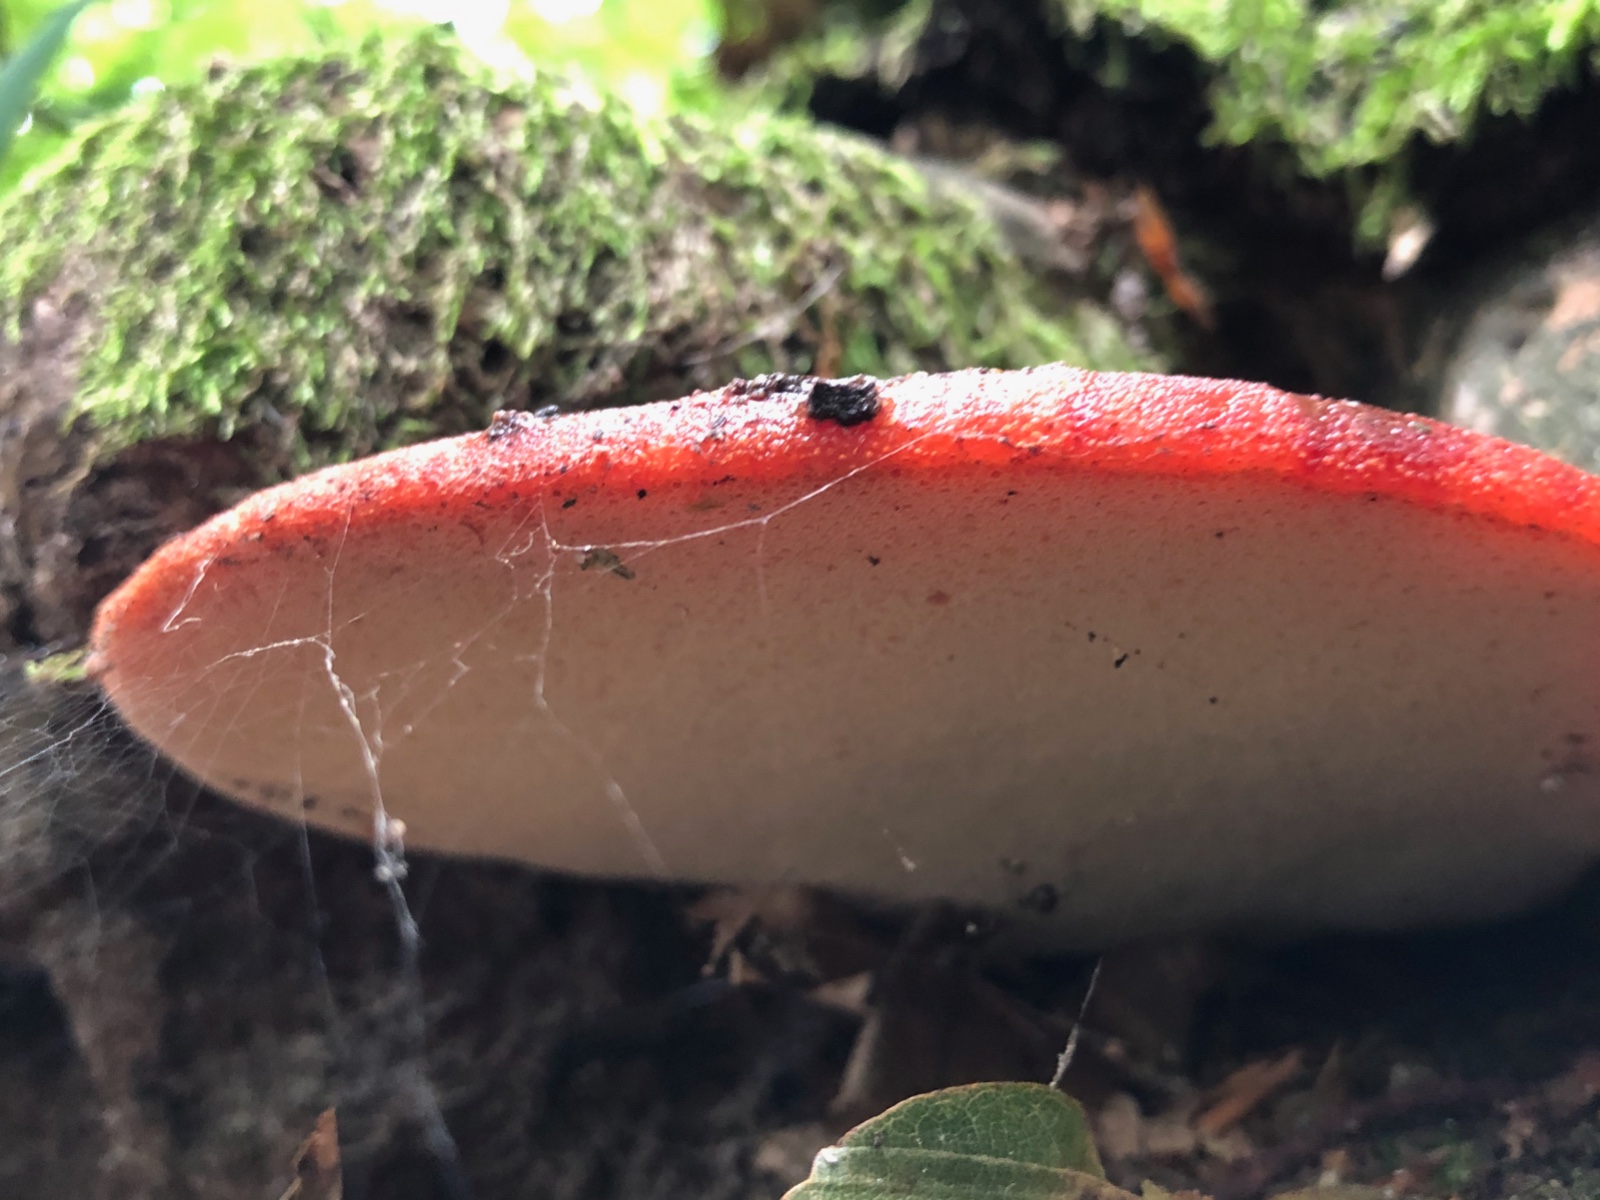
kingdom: Fungi
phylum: Basidiomycota
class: Agaricomycetes
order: Agaricales
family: Fistulinaceae
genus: Fistulina
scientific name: Fistulina hepatica
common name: oksetunge
